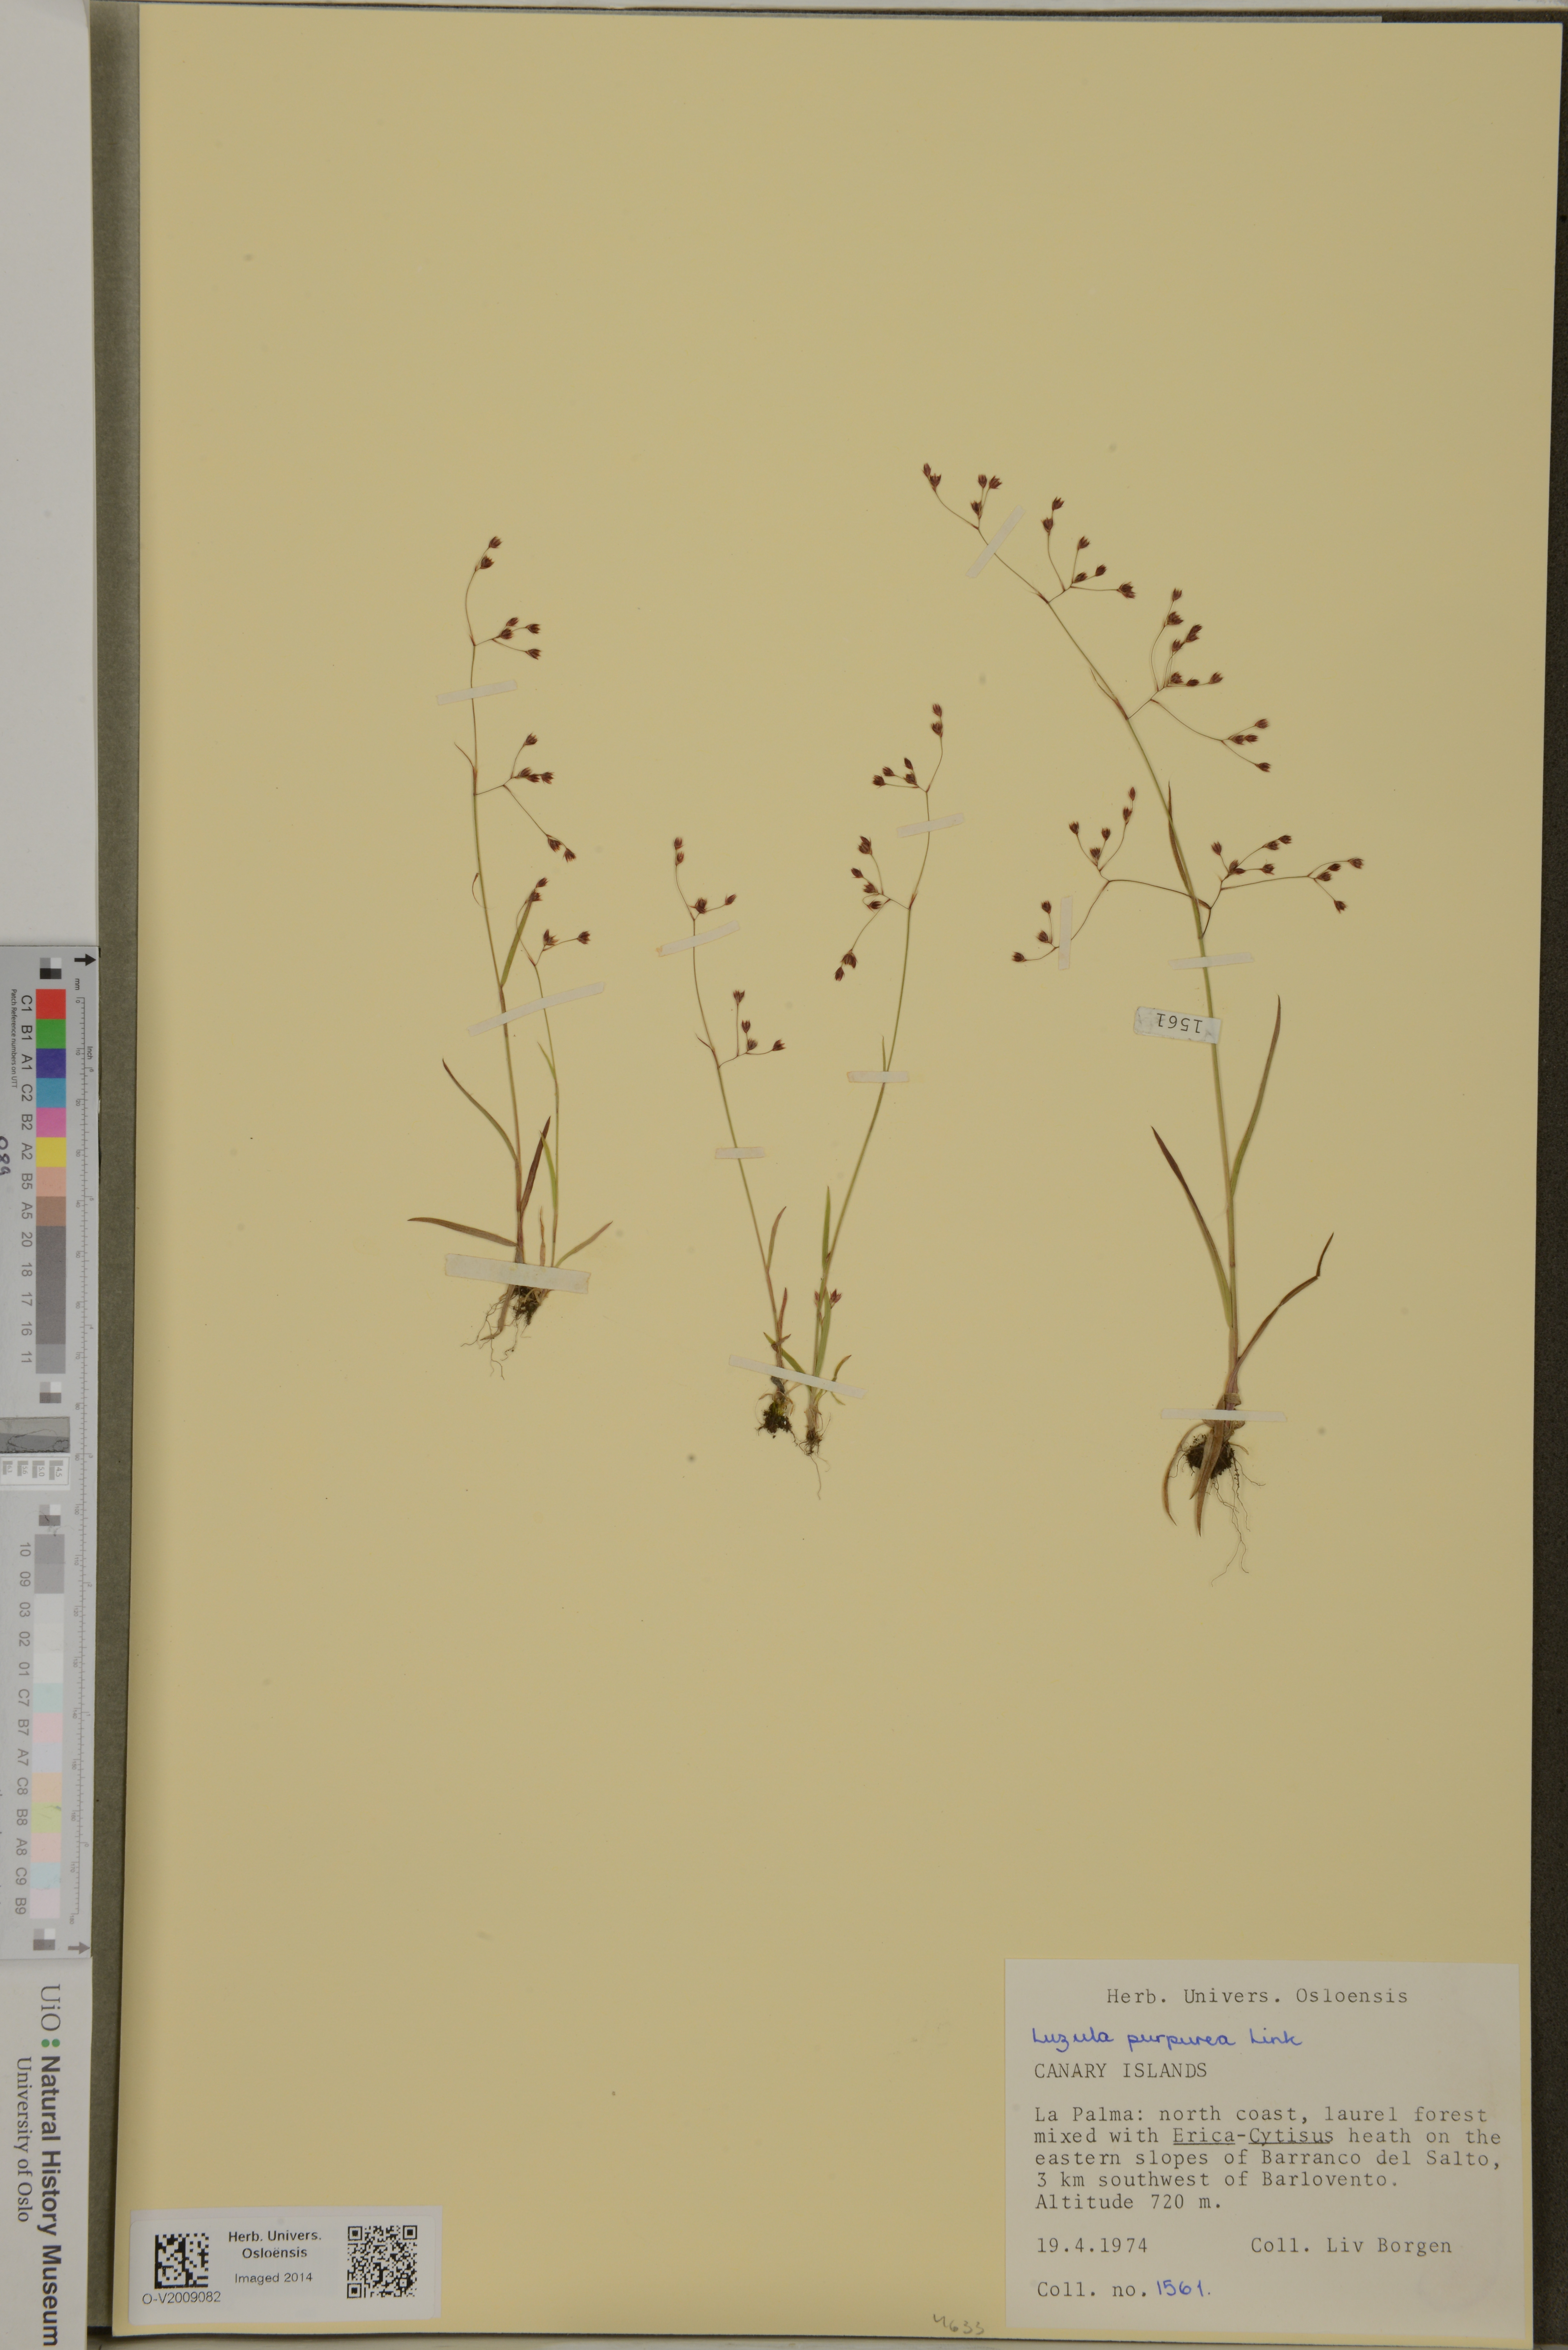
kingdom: Plantae
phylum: Tracheophyta
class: Liliopsida
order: Poales
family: Juncaceae
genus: Luzula
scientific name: Luzula elegans
